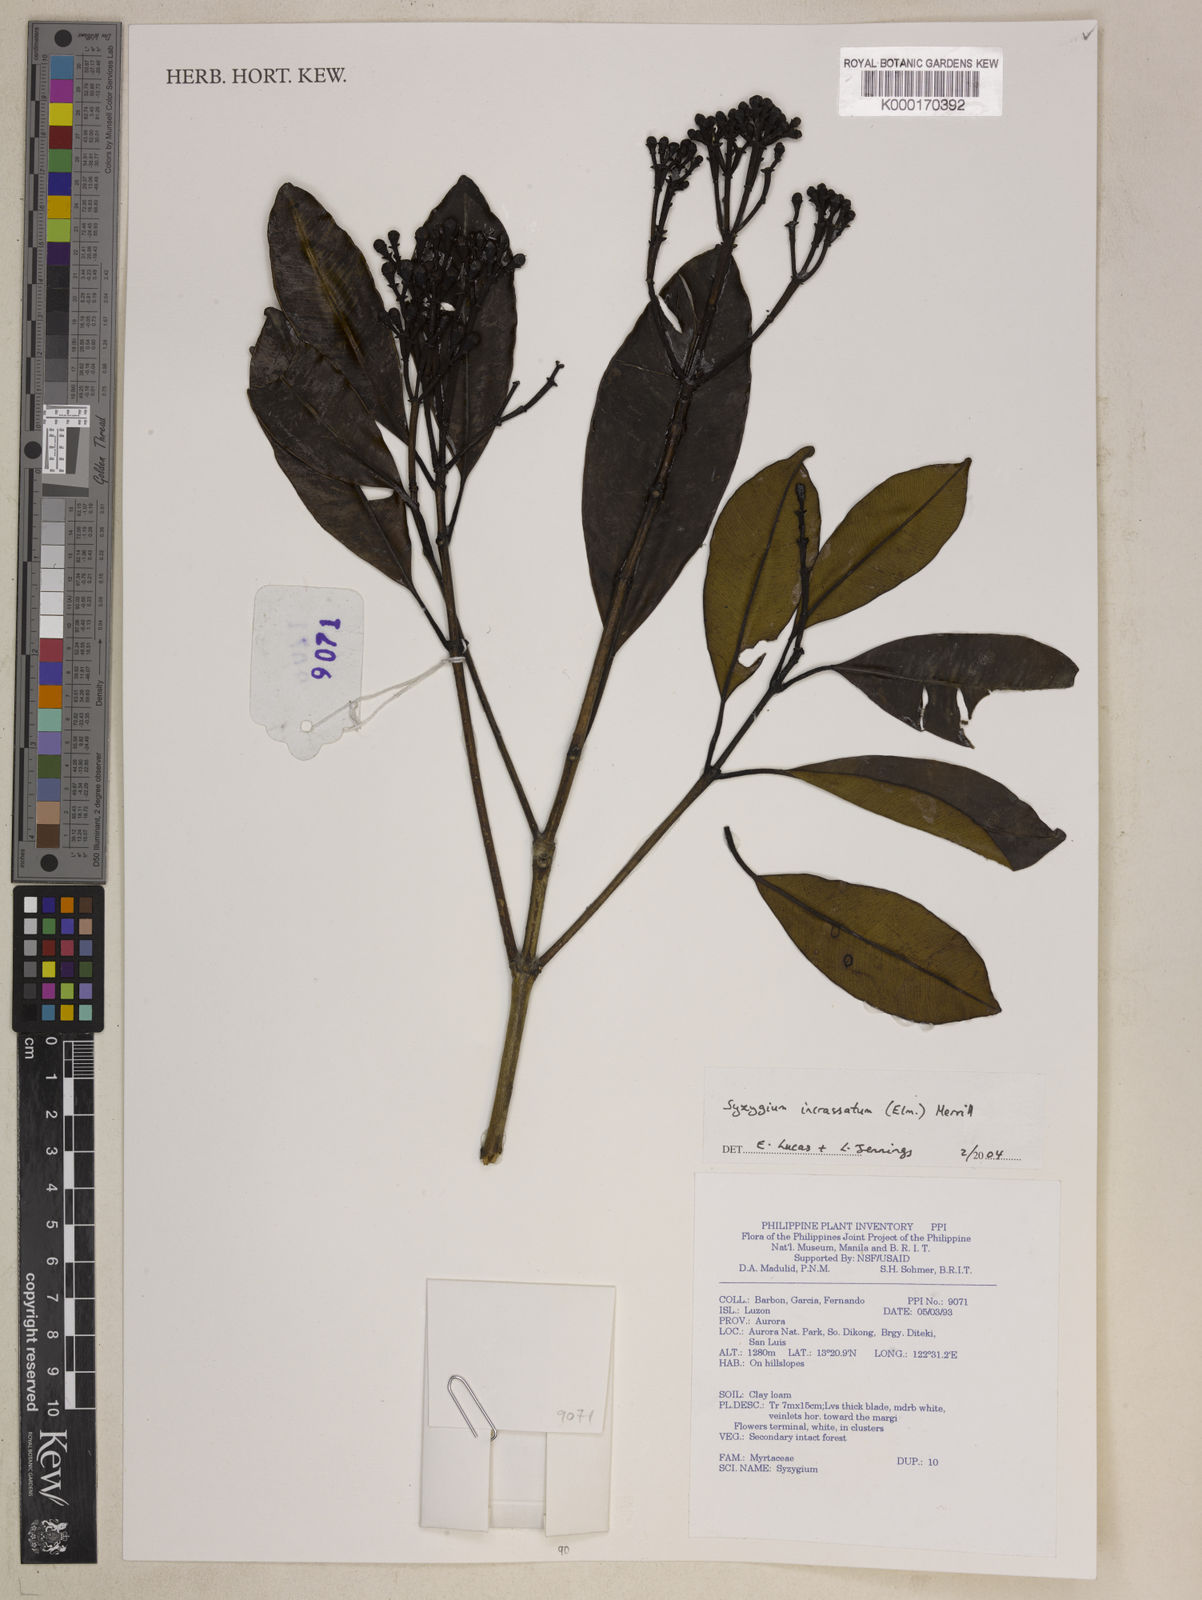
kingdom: Plantae
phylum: Tracheophyta
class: Magnoliopsida
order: Myrtales
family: Myrtaceae
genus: Syzygium
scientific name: Syzygium incrassatum
